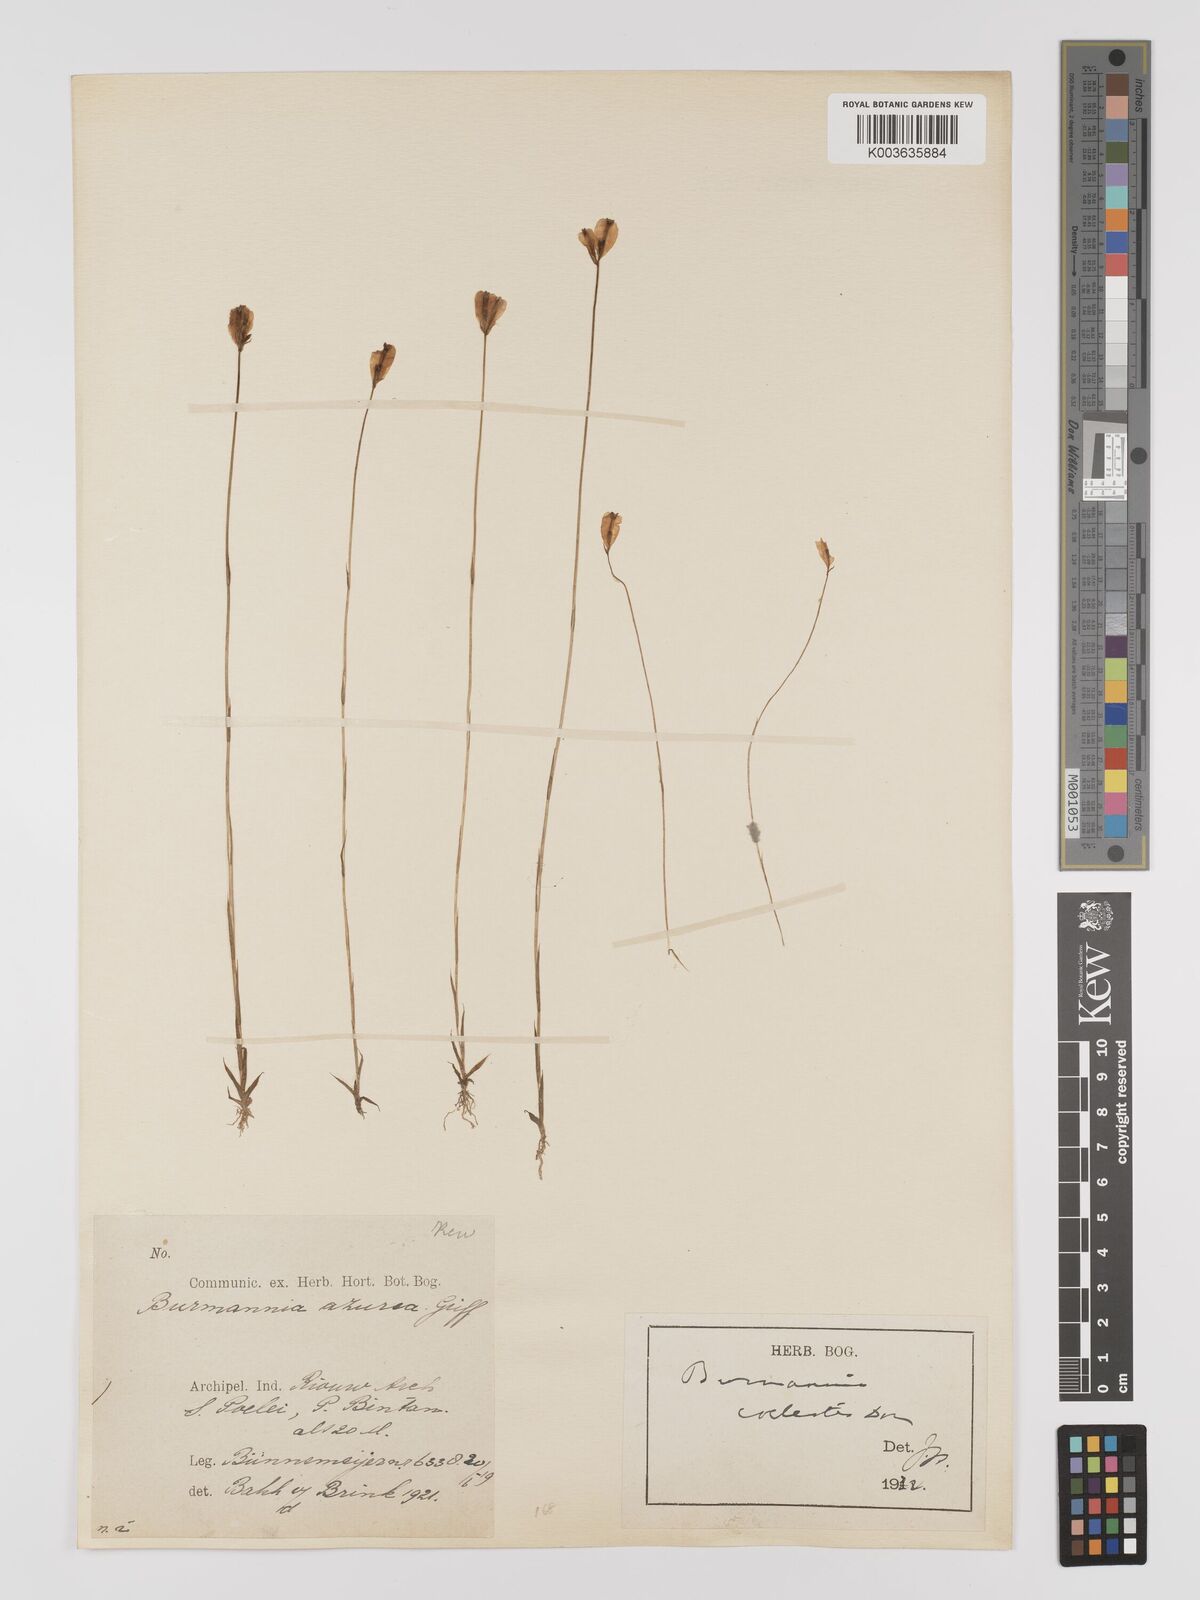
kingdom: Plantae
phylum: Tracheophyta
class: Liliopsida
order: Dioscoreales
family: Burmanniaceae
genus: Burmannia
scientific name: Burmannia coelestis
